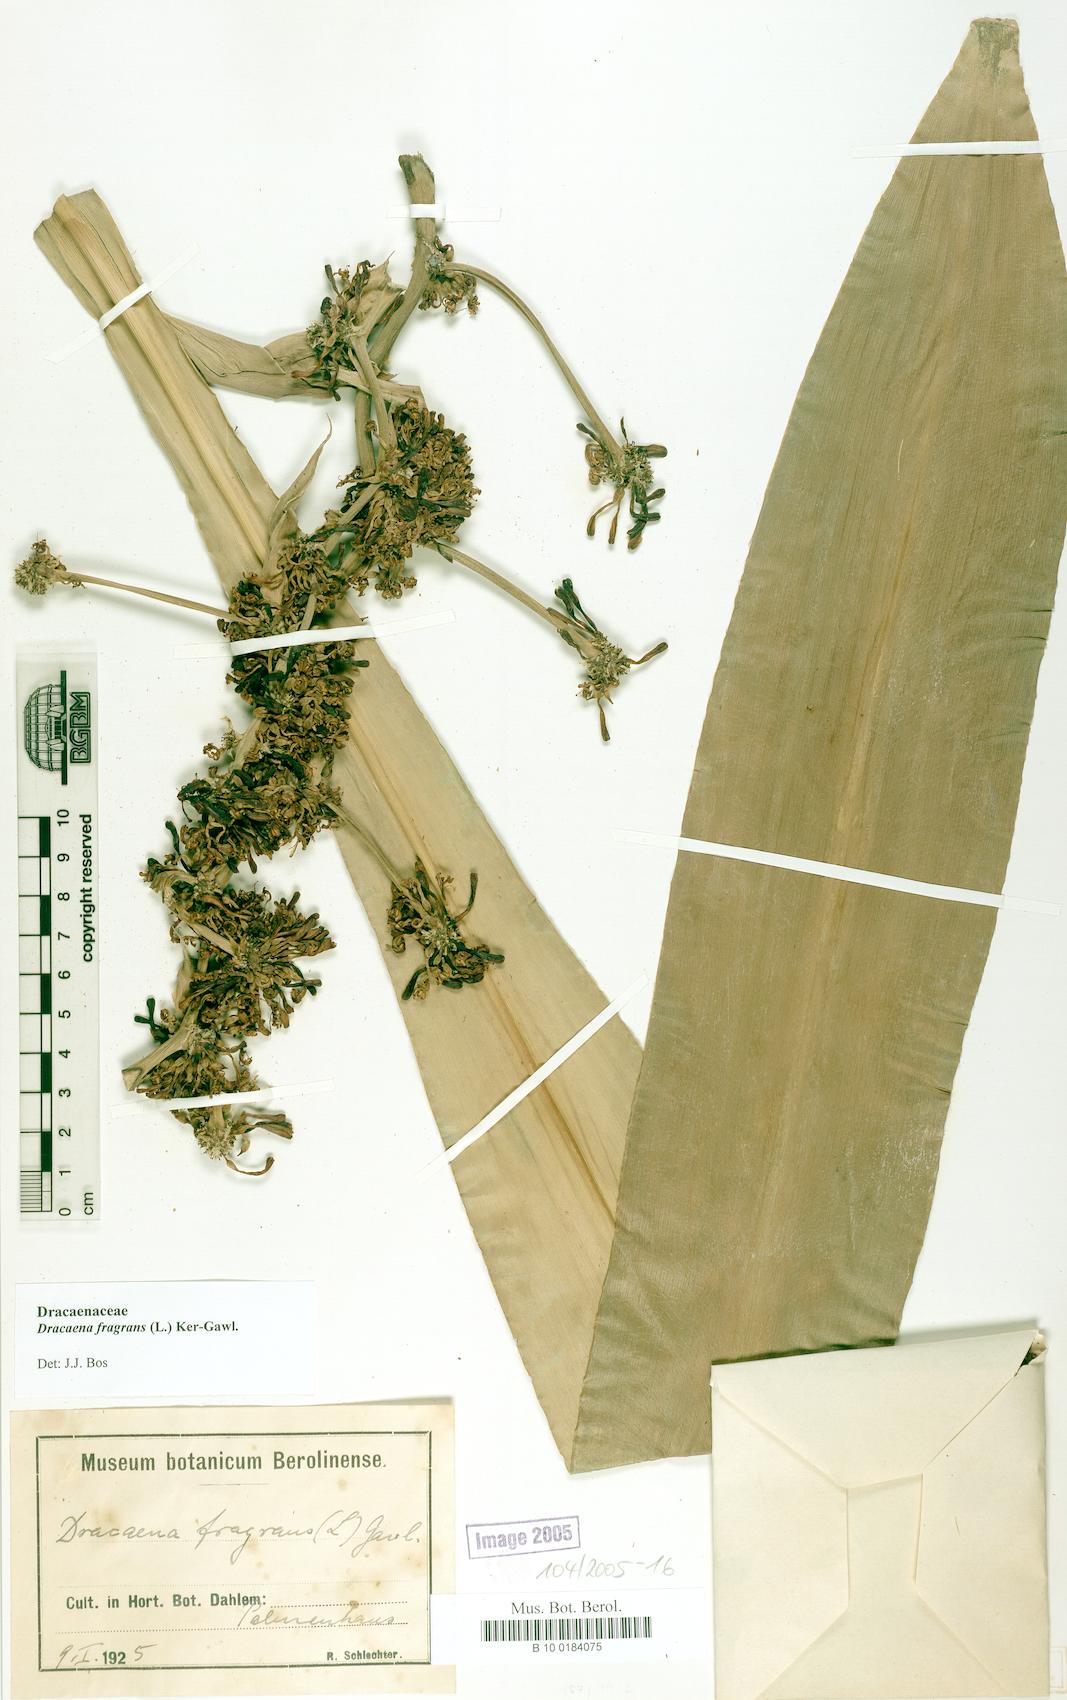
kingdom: Plantae
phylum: Tracheophyta
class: Liliopsida
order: Asparagales
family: Asparagaceae
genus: Dracaena
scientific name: Dracaena fragrans
